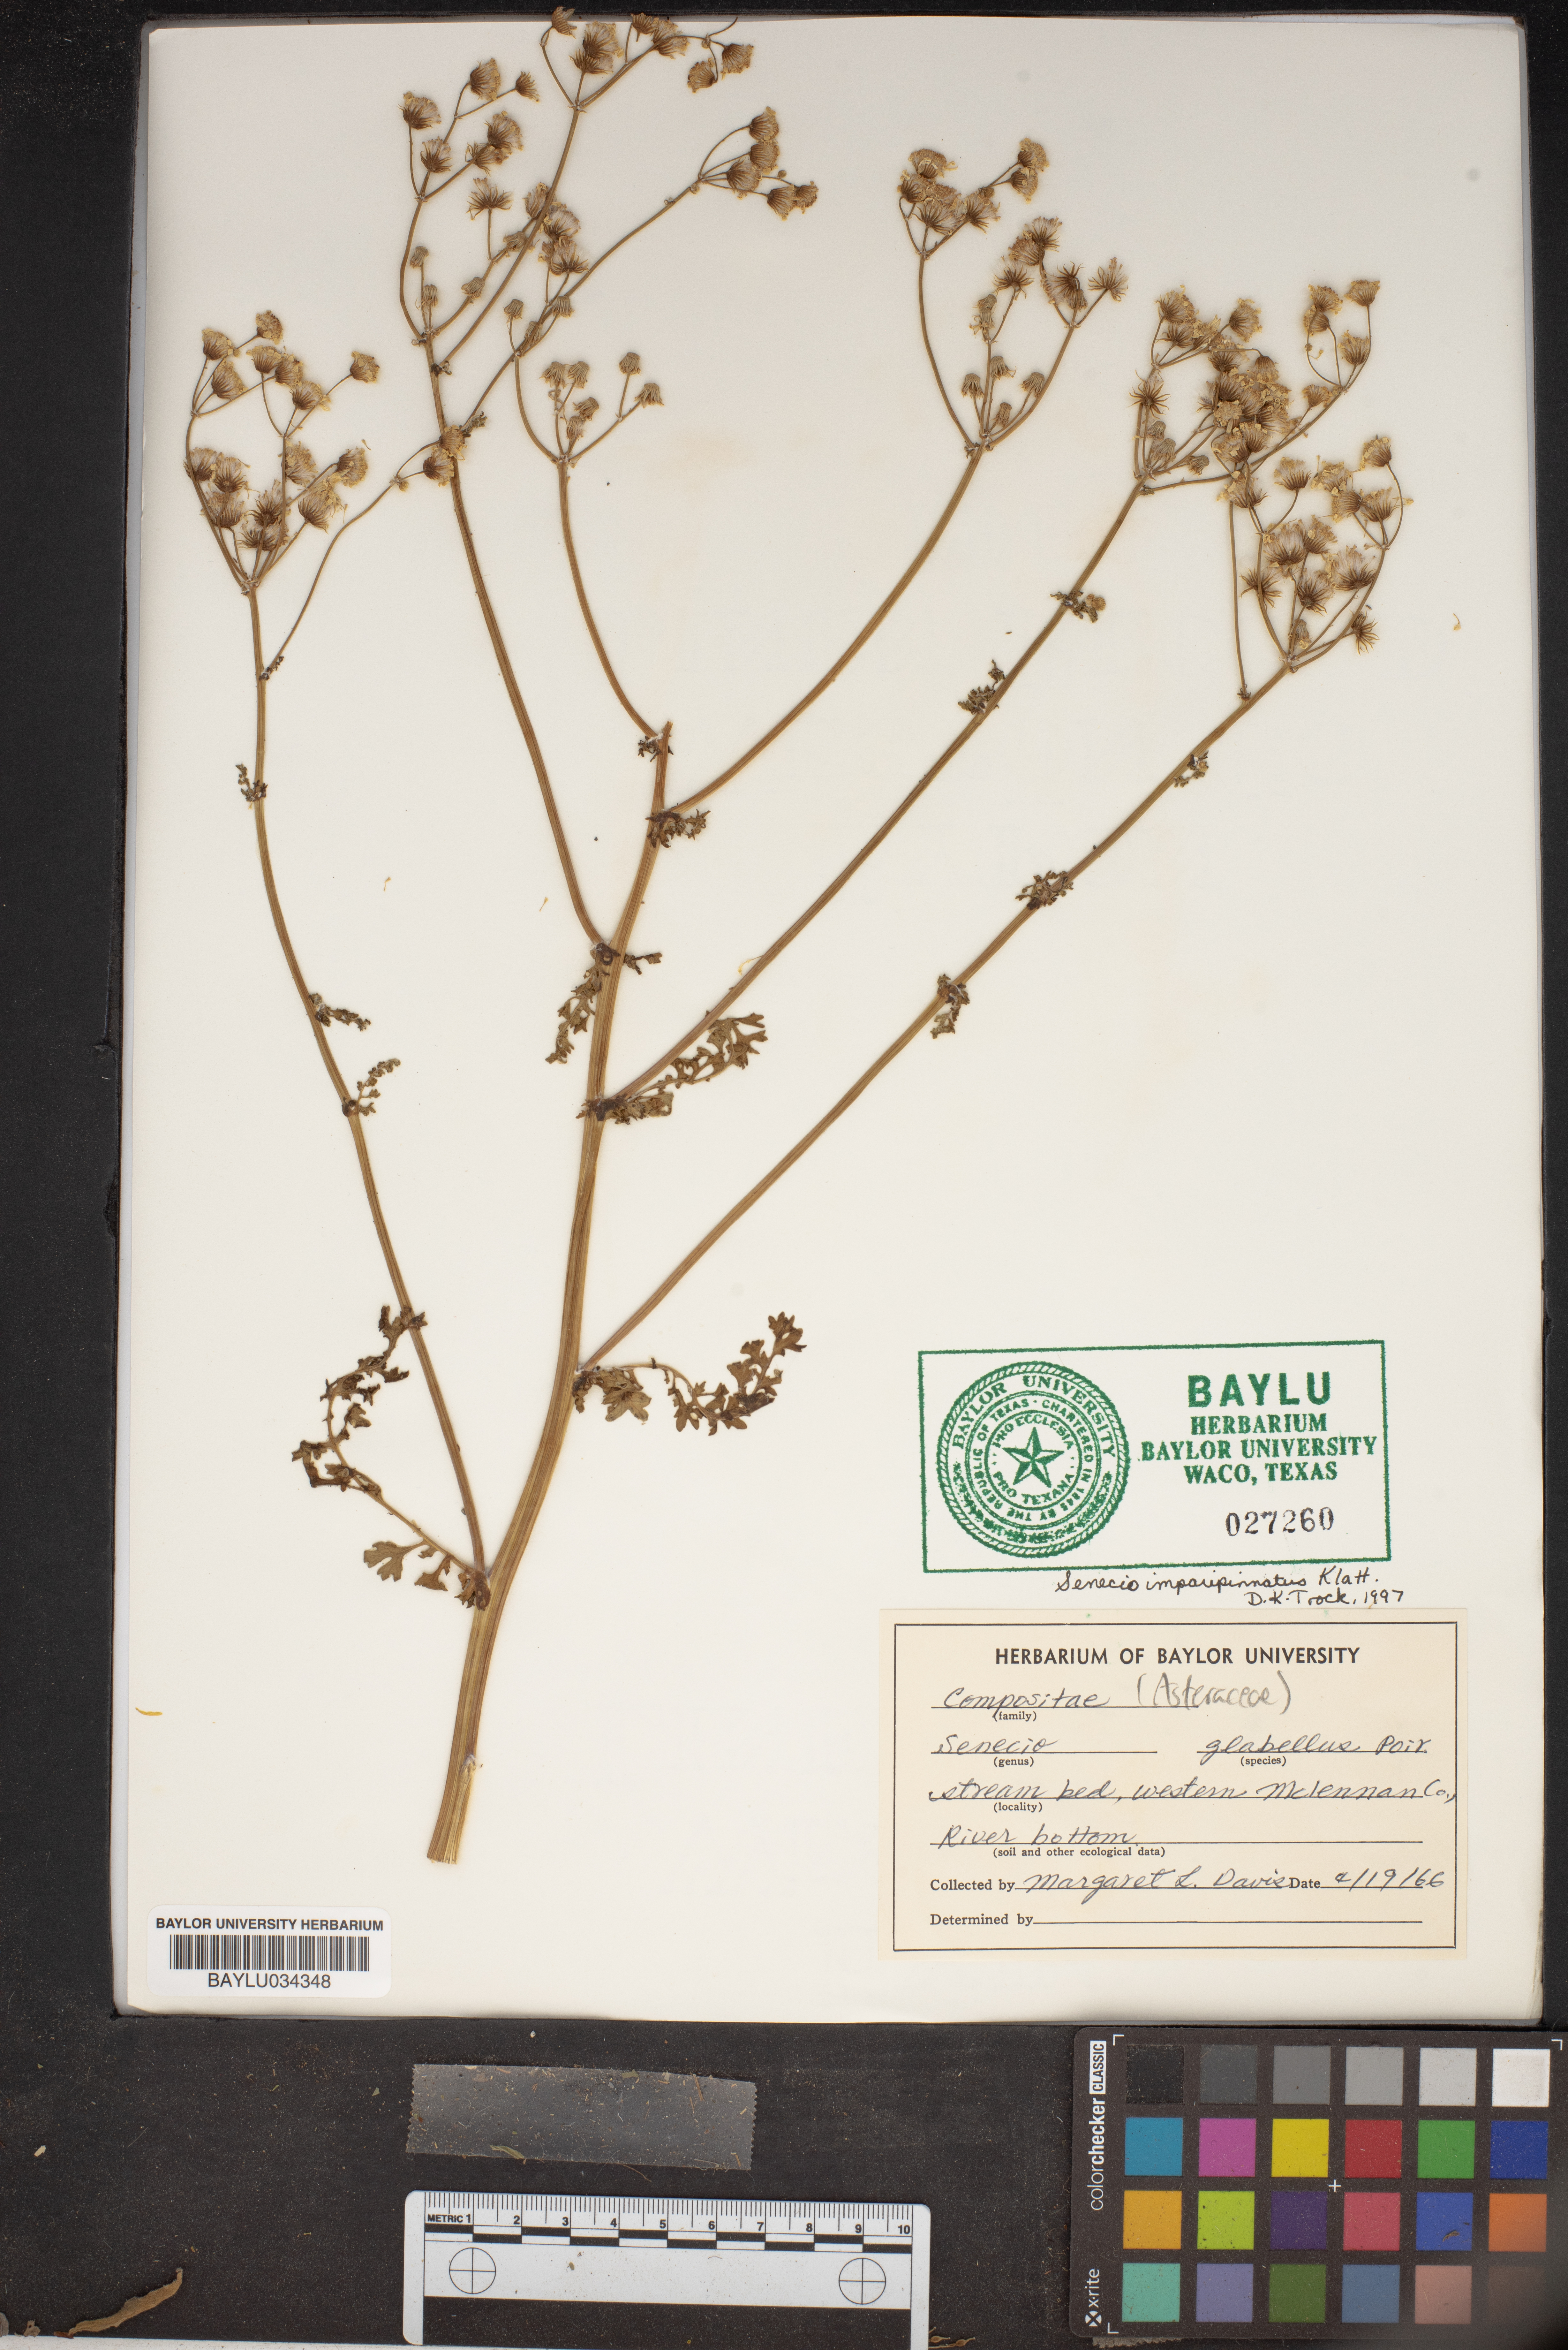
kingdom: Plantae
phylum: Tracheophyta
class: Magnoliopsida
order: Asterales
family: Asteraceae
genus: Tephroseris
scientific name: Tephroseris praticola
